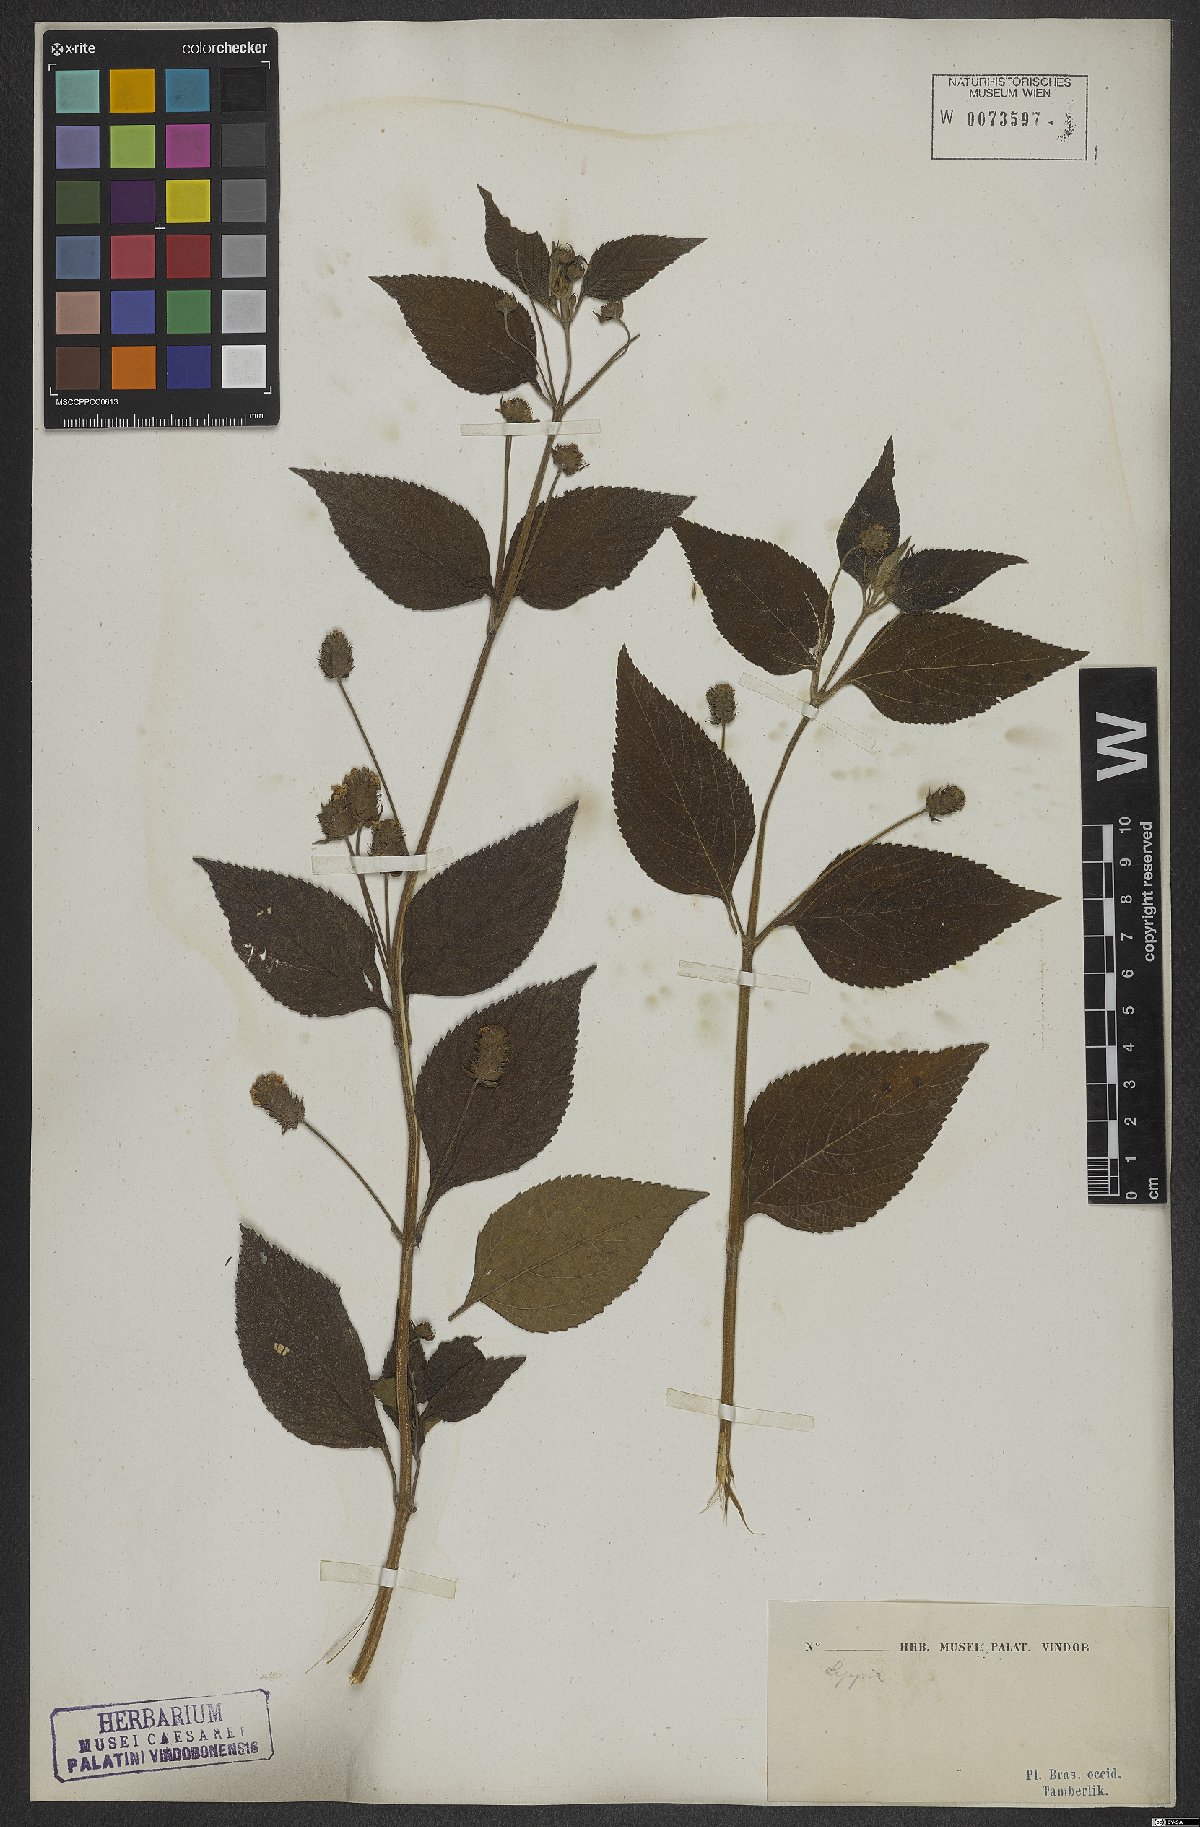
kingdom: Plantae
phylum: Tracheophyta
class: Magnoliopsida
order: Lamiales
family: Verbenaceae
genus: Lantana
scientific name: Lantana undulata
